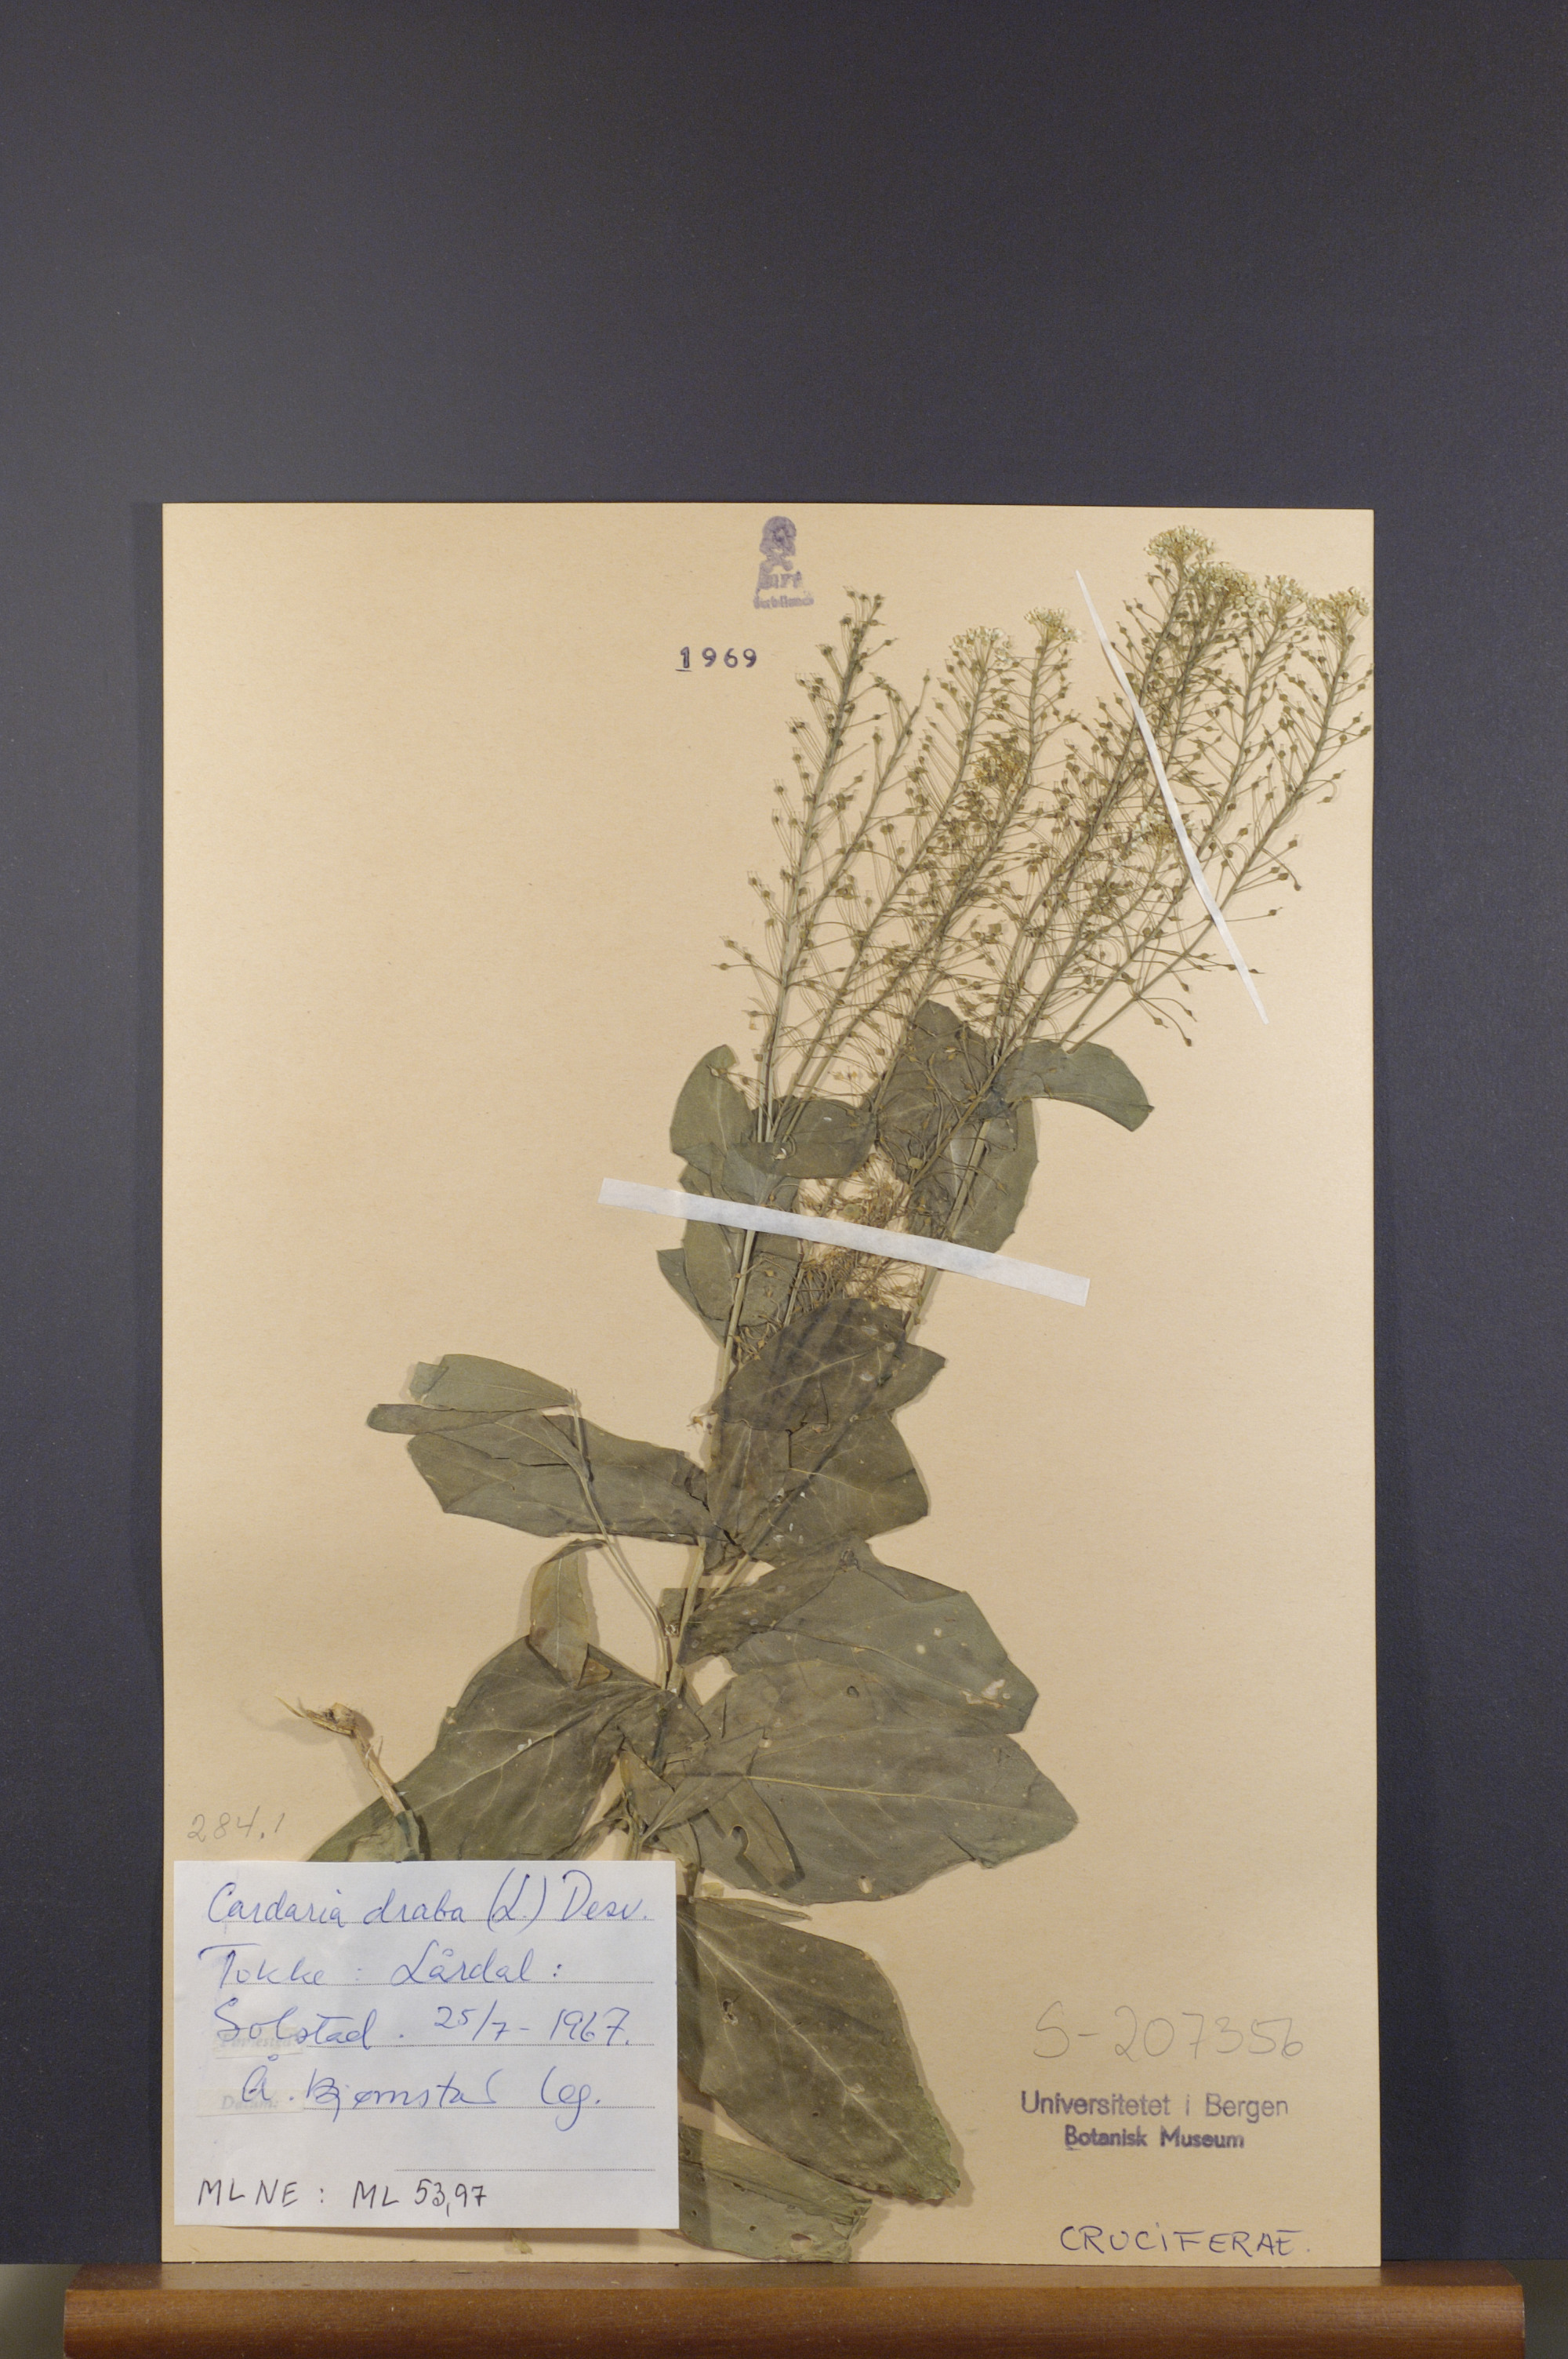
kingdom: Plantae
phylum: Tracheophyta
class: Magnoliopsida
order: Brassicales
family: Brassicaceae
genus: Lepidium
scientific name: Lepidium draba
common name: Hoary cress
